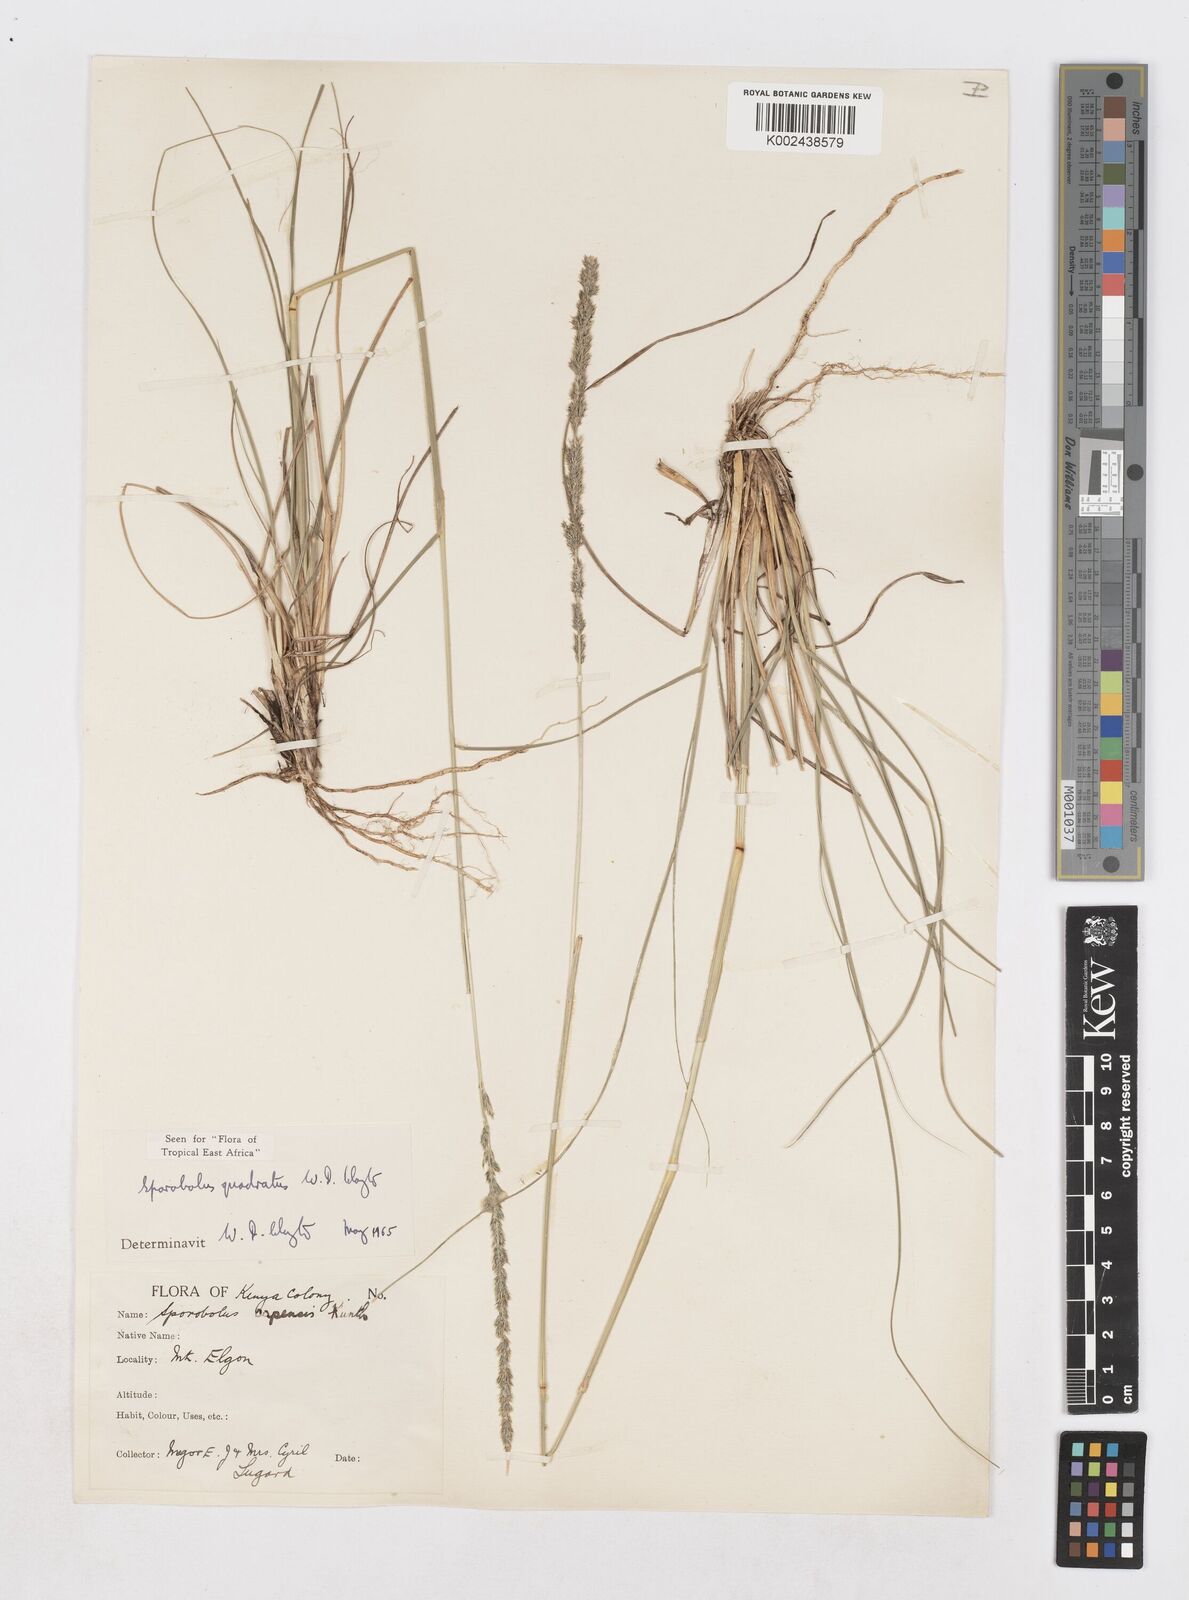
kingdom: Plantae
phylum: Tracheophyta
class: Liliopsida
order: Poales
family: Poaceae
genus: Sporobolus
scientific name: Sporobolus quadratus
